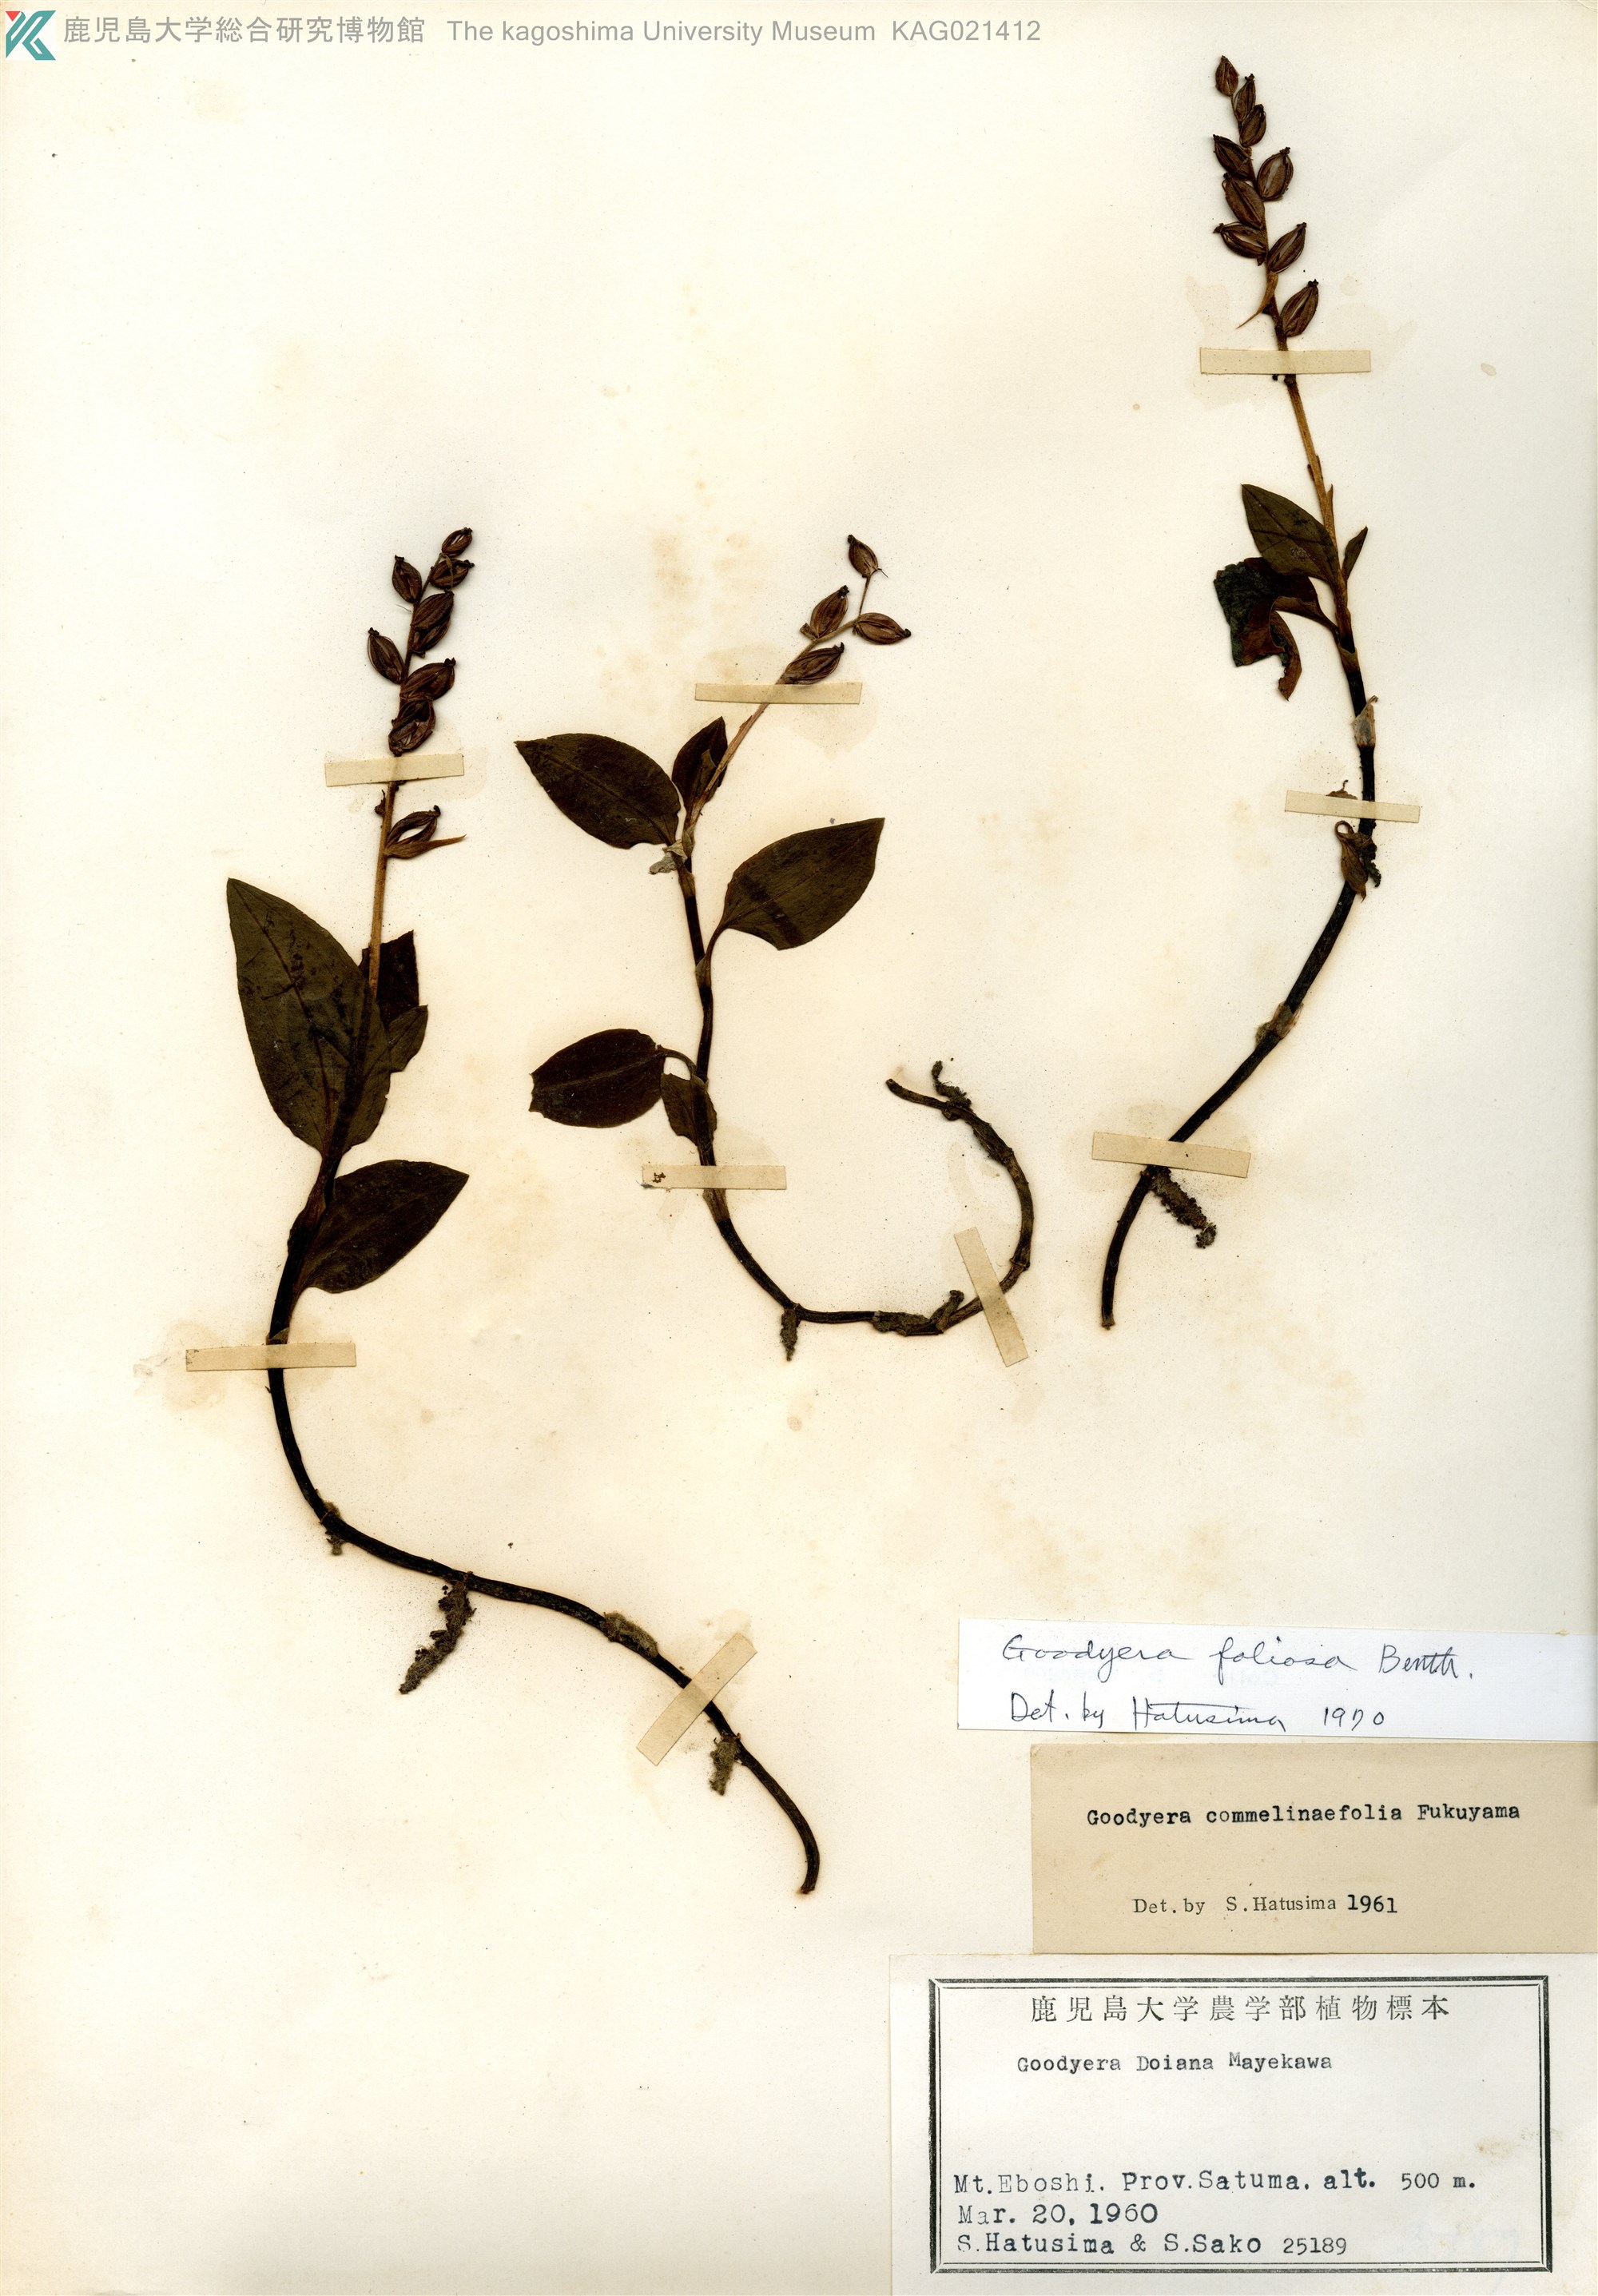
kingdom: Plantae
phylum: Tracheophyta
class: Liliopsida
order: Asparagales
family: Orchidaceae
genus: Goodyera
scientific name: Goodyera foliosa
